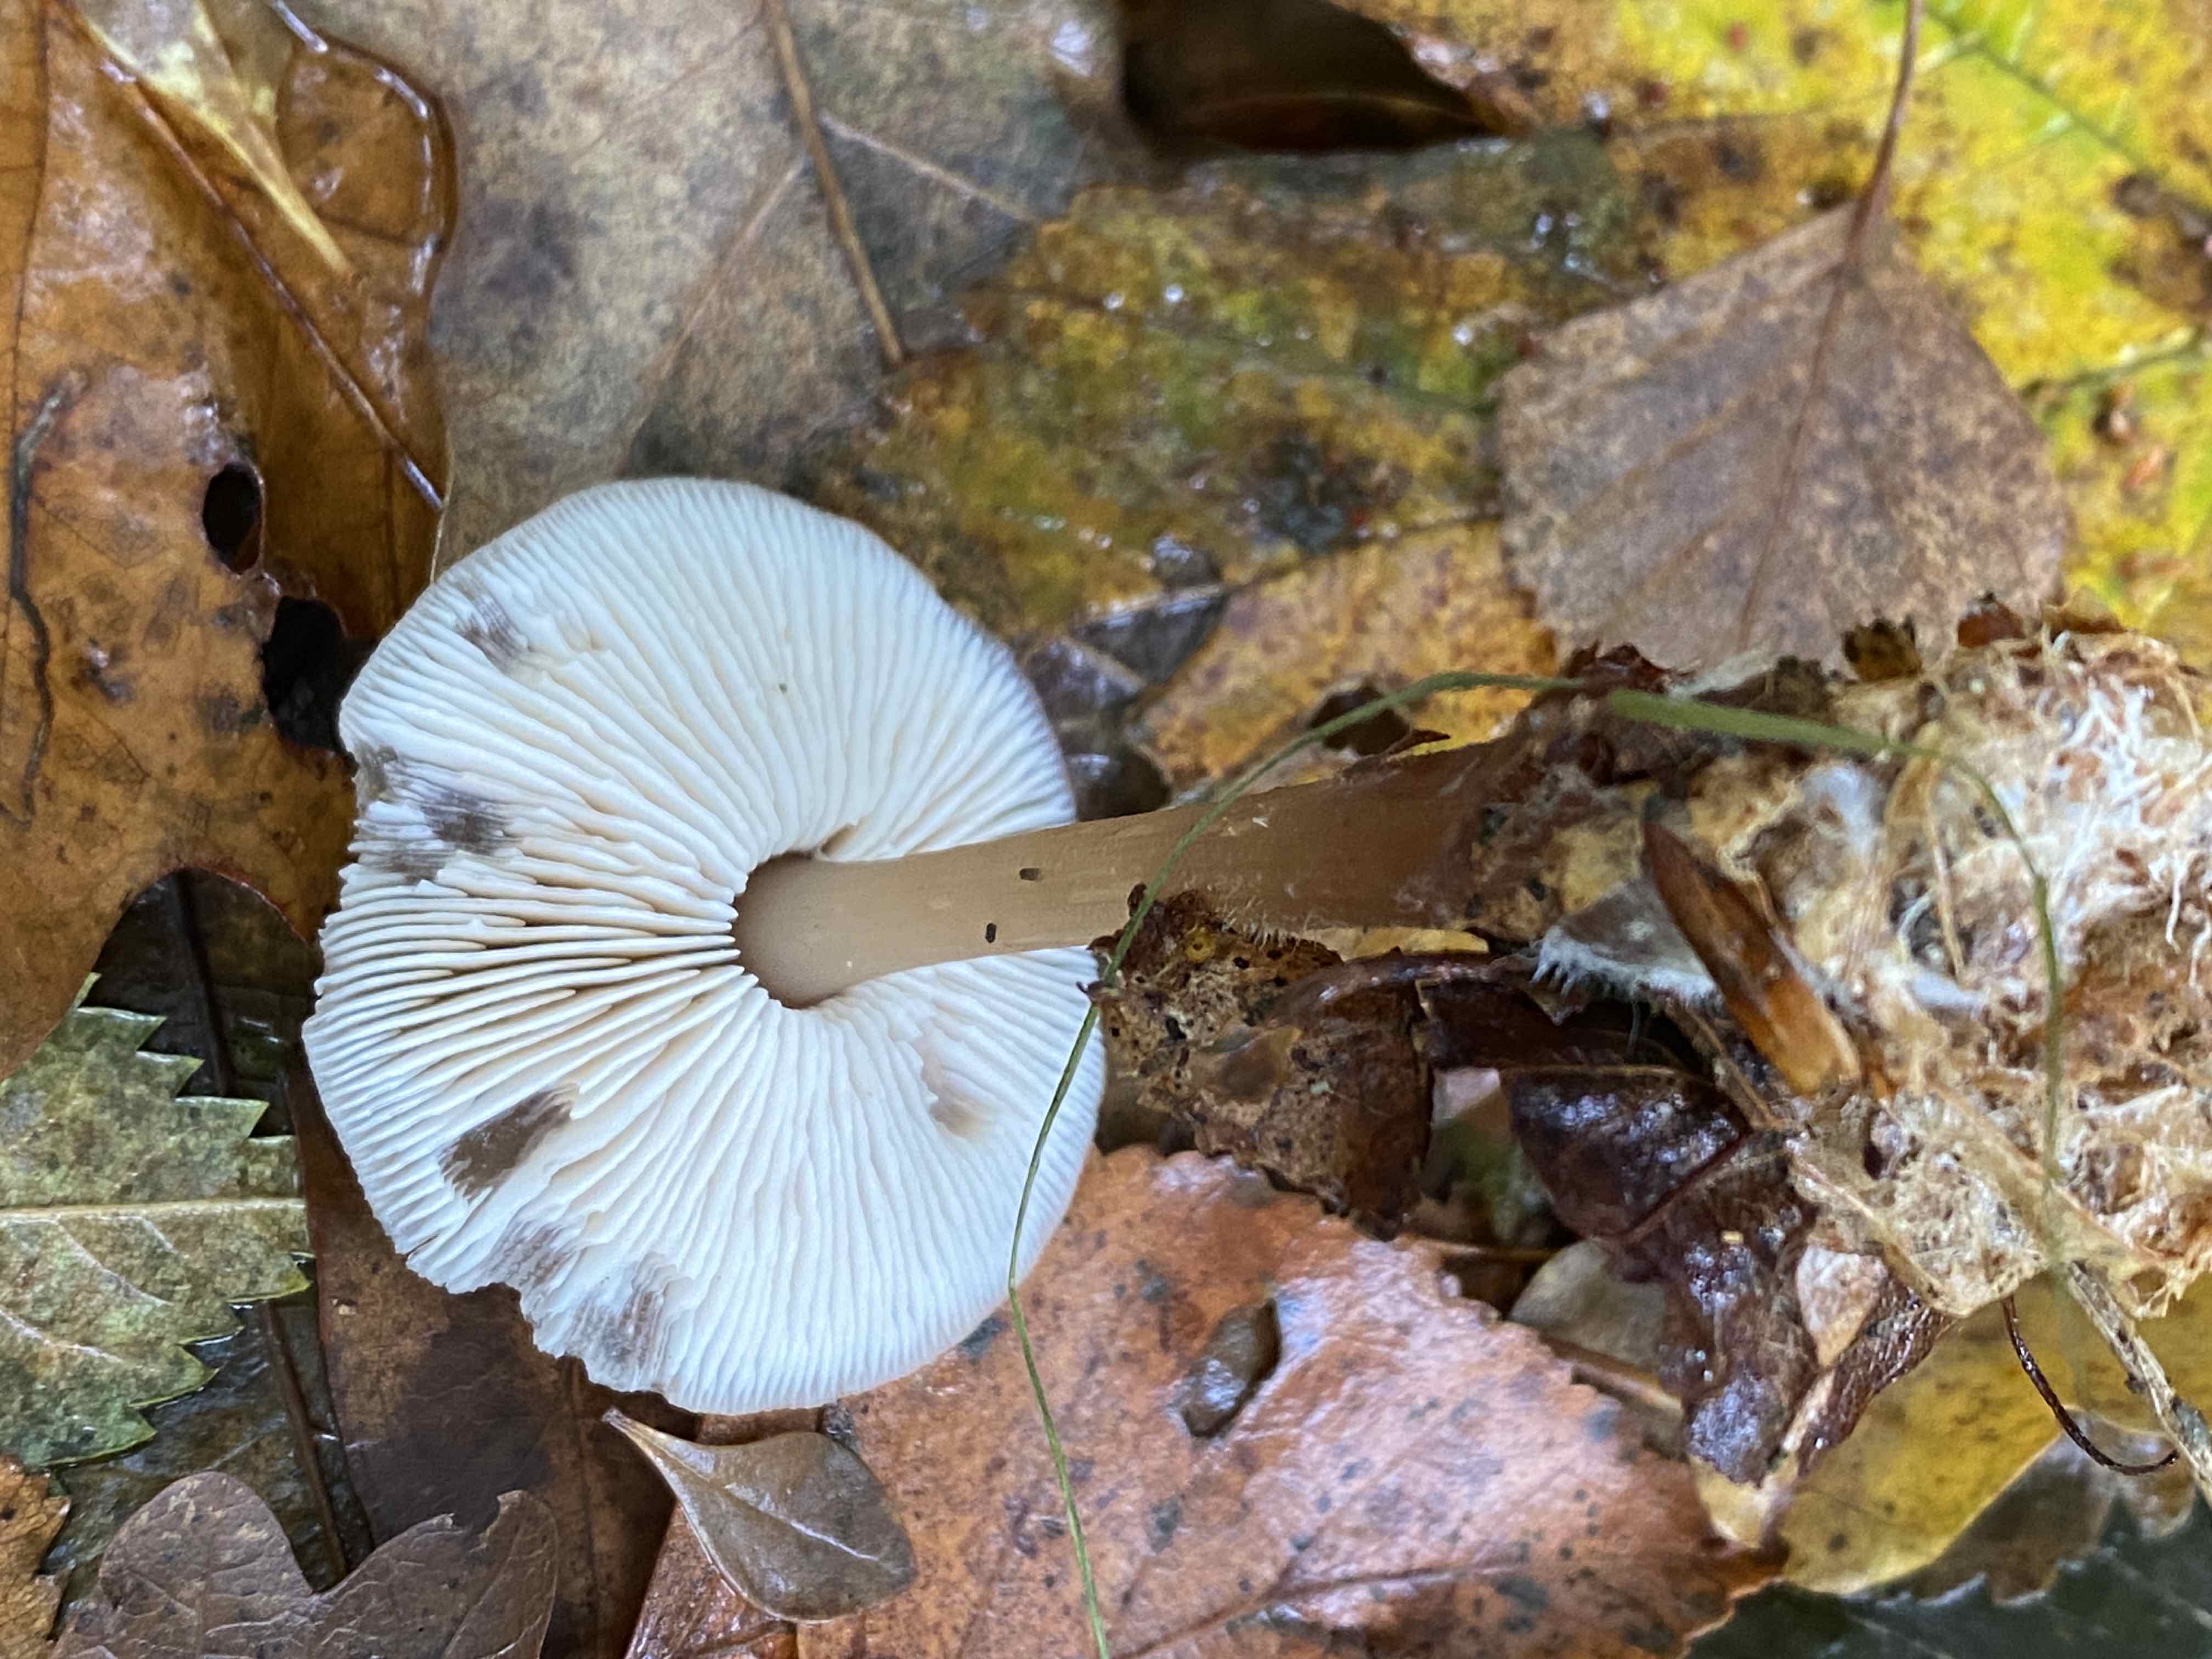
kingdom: Fungi
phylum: Basidiomycota
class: Agaricomycetes
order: Agaricales
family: Omphalotaceae
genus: Rhodocollybia
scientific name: Rhodocollybia asema
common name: horngrå fladhat
